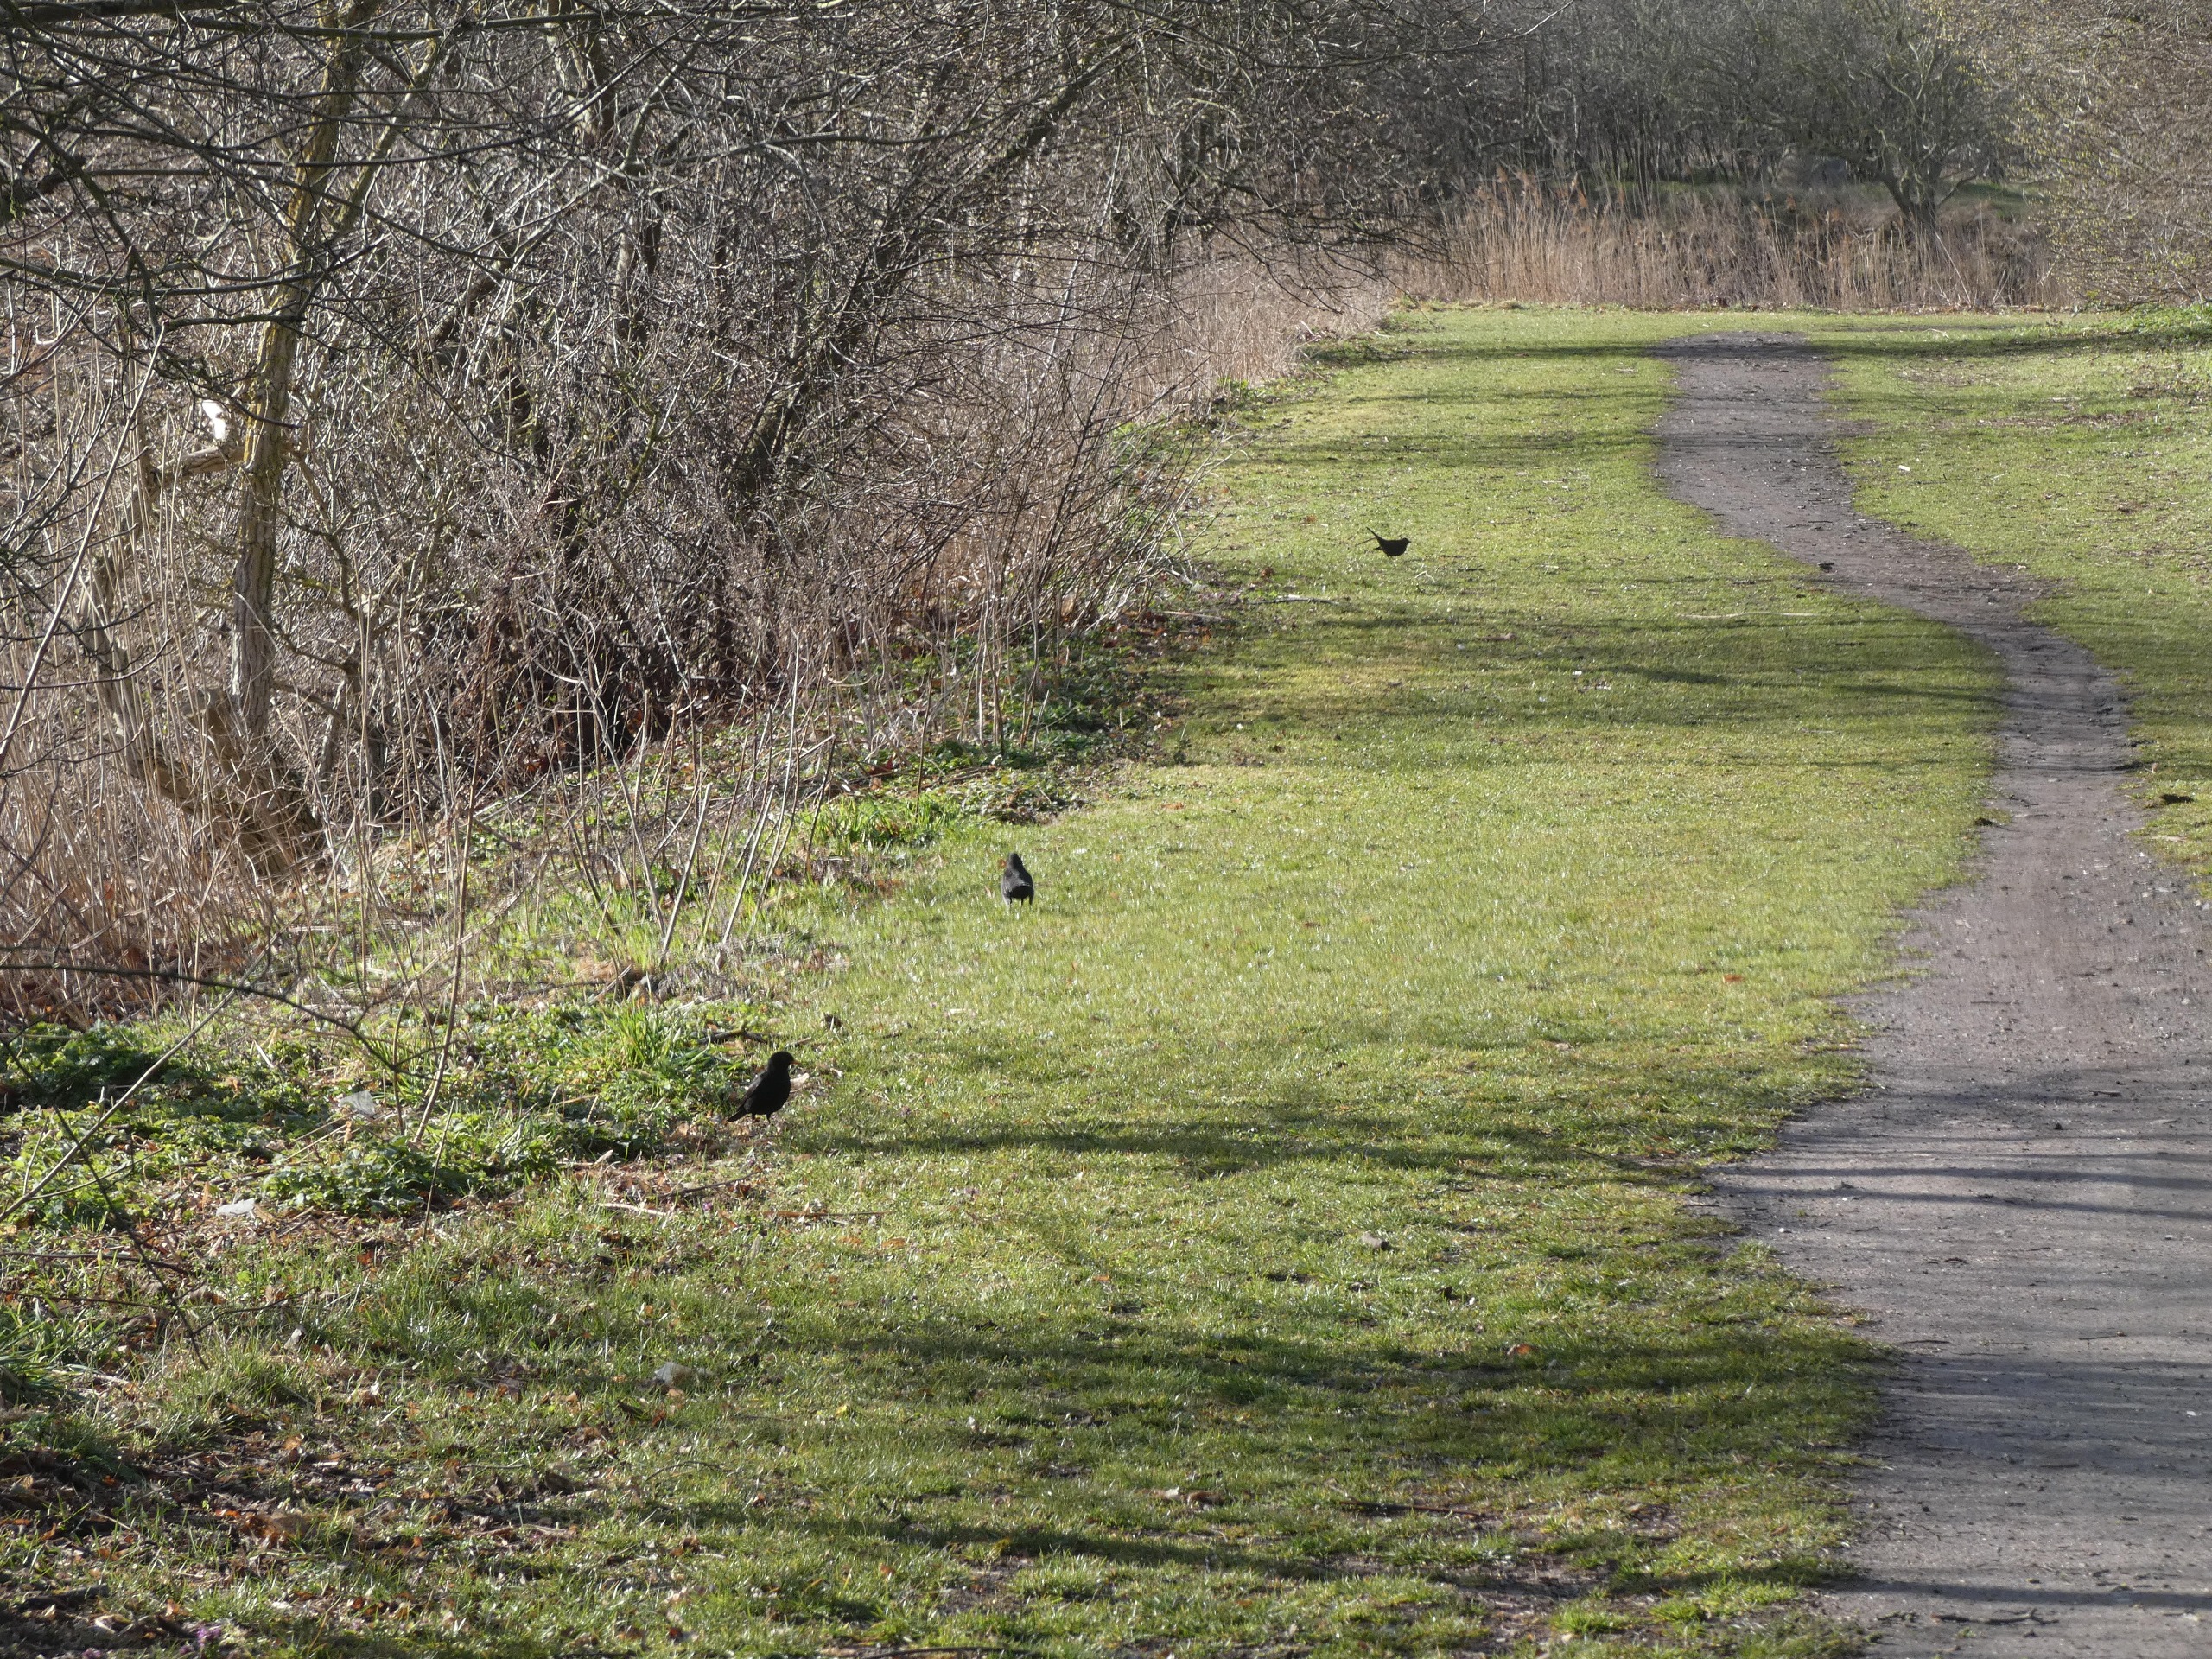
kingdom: Animalia
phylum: Chordata
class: Aves
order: Passeriformes
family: Turdidae
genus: Turdus
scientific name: Turdus merula
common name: Solsort
